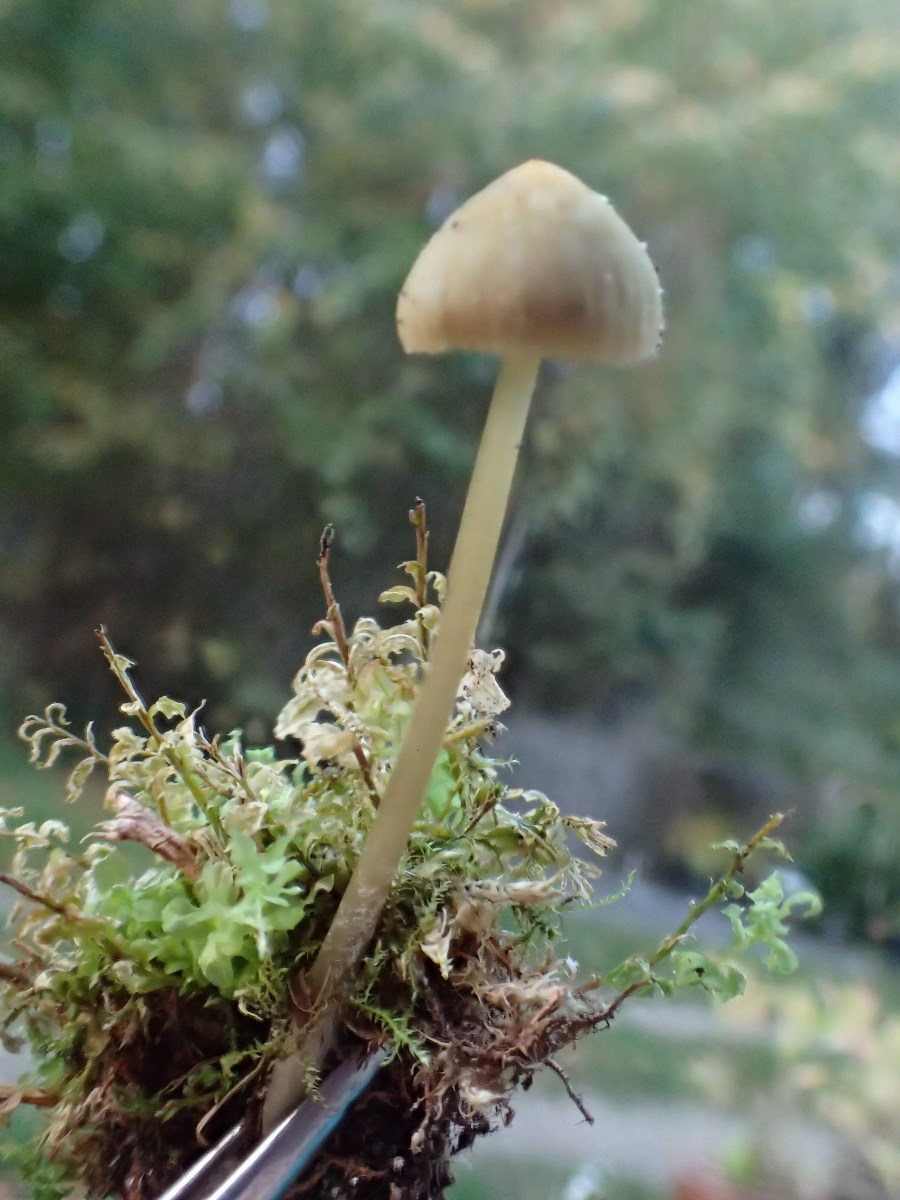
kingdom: Fungi
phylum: Basidiomycota
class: Agaricomycetes
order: Agaricales
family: Mycenaceae
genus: Mycena
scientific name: Mycena olivaceomarginata
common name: brunægget huesvamp
